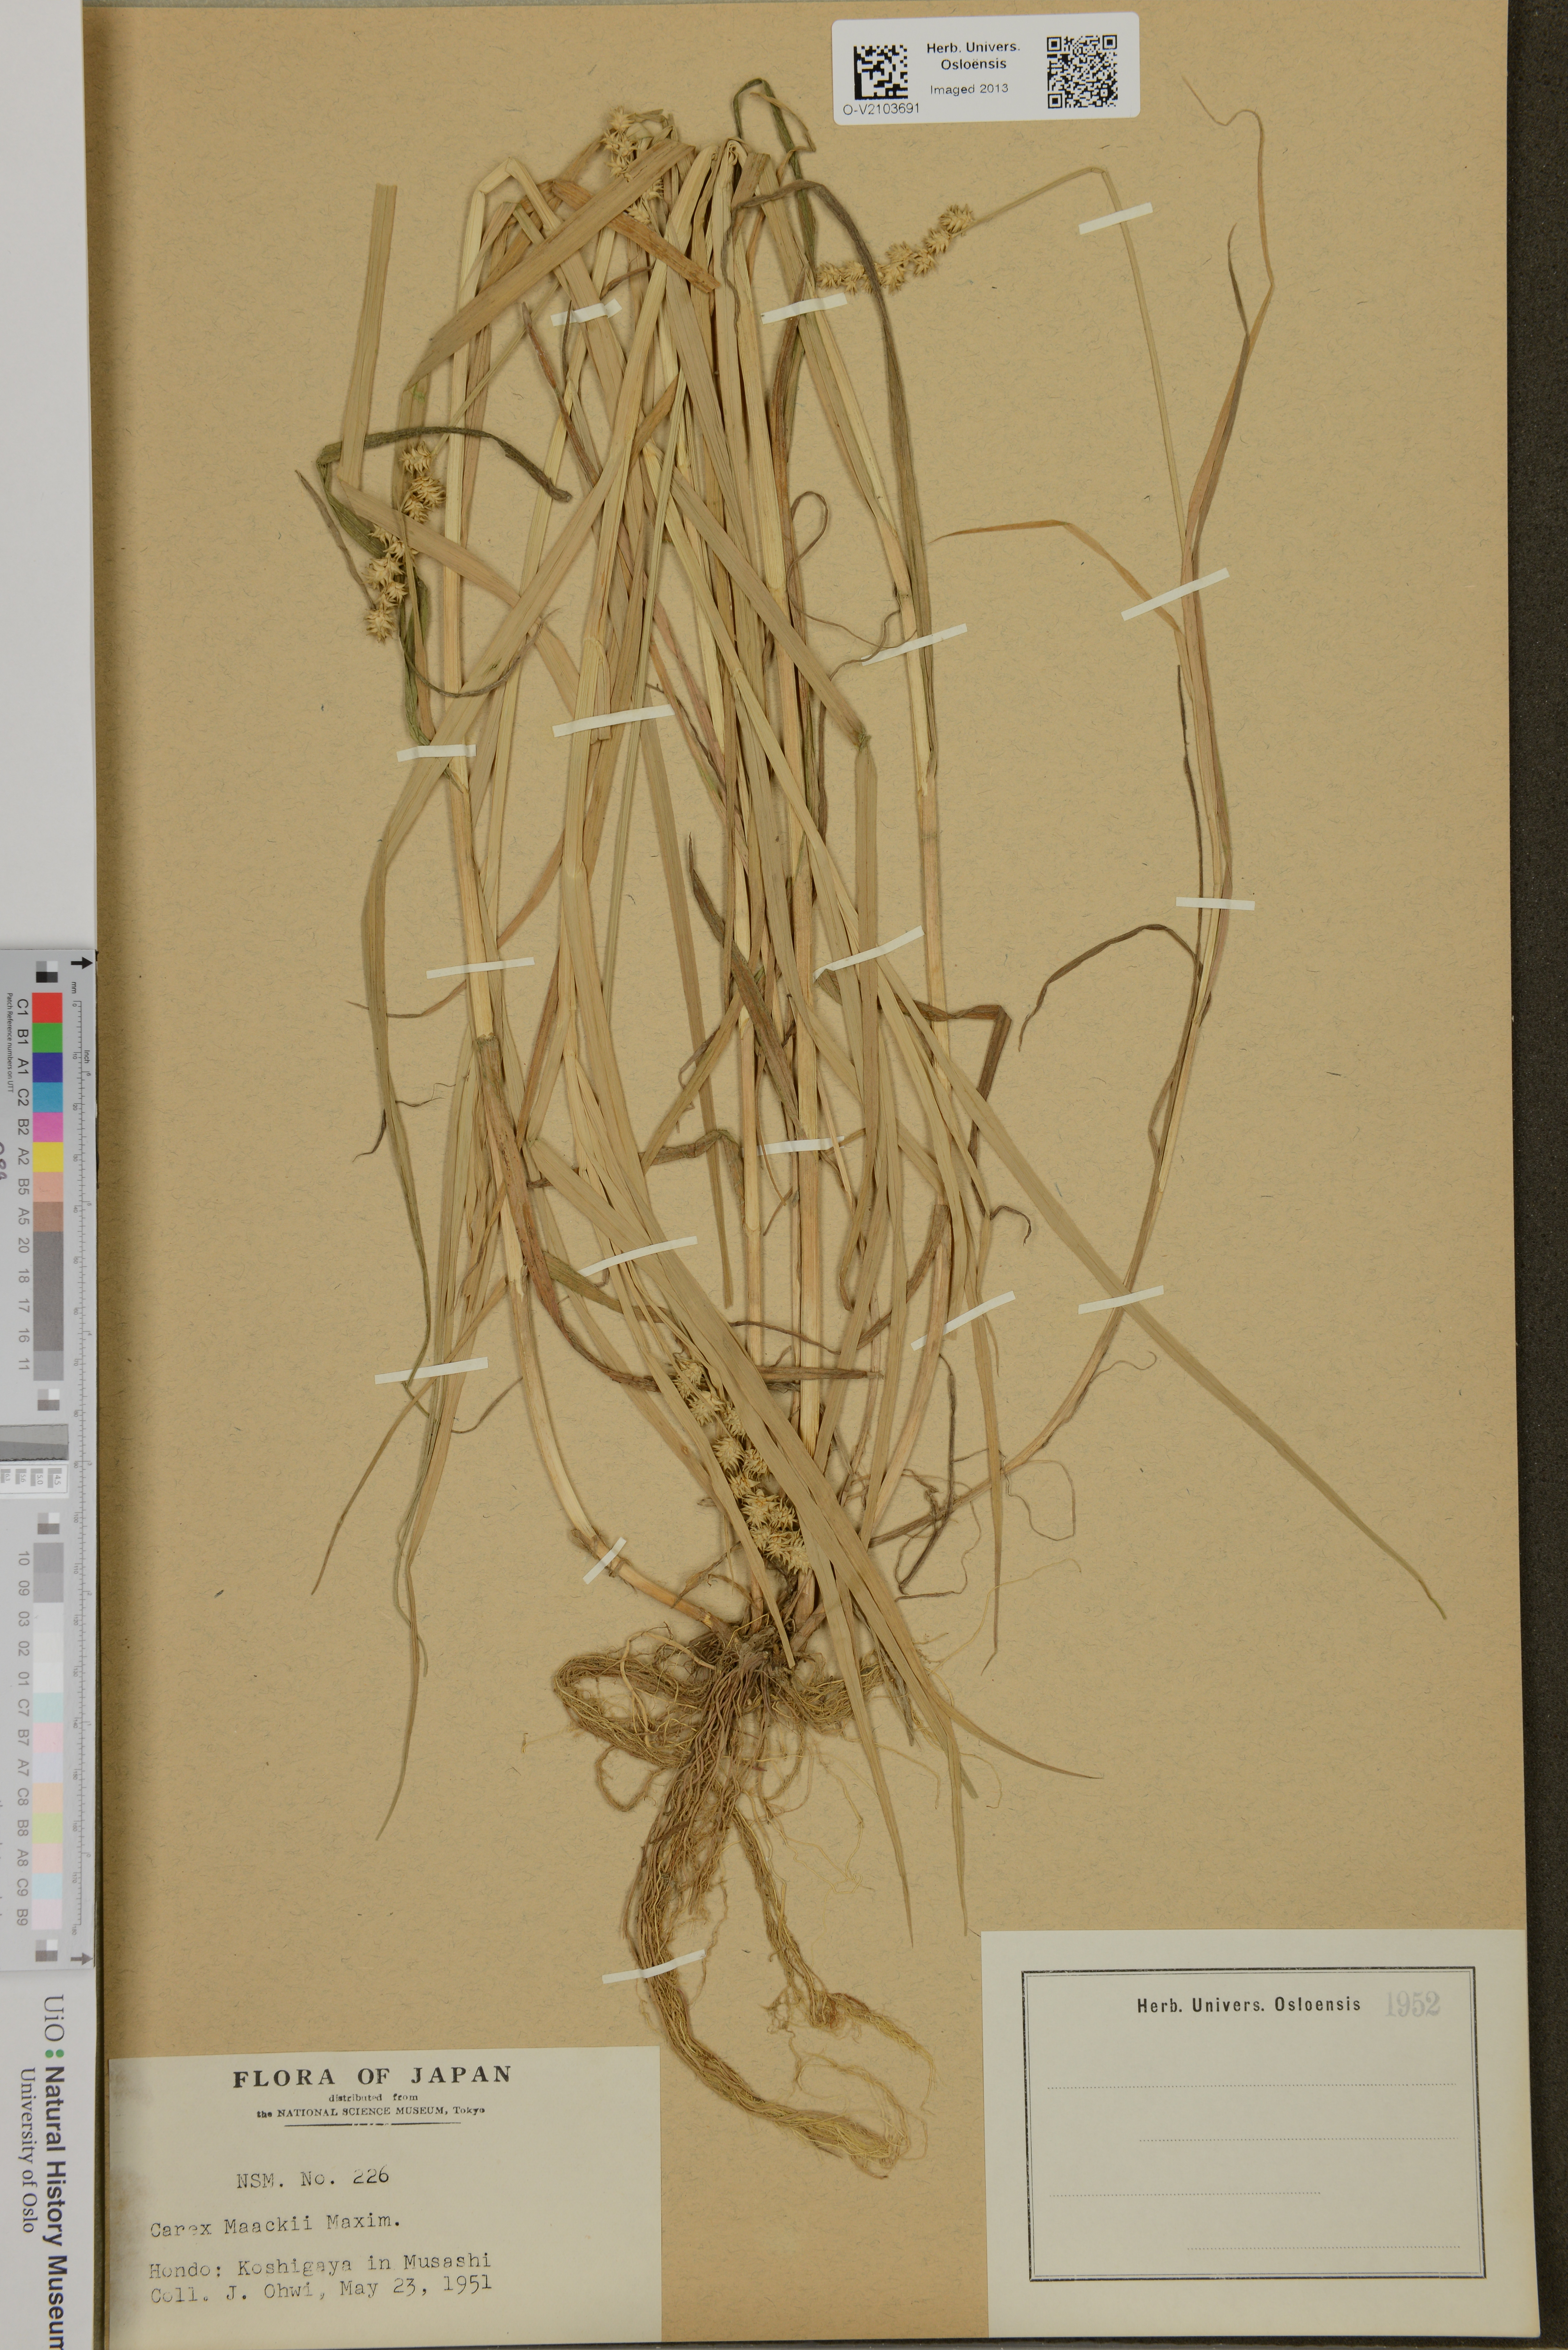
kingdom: Plantae
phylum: Tracheophyta
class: Liliopsida
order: Poales
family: Cyperaceae
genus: Carex
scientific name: Carex maackii
